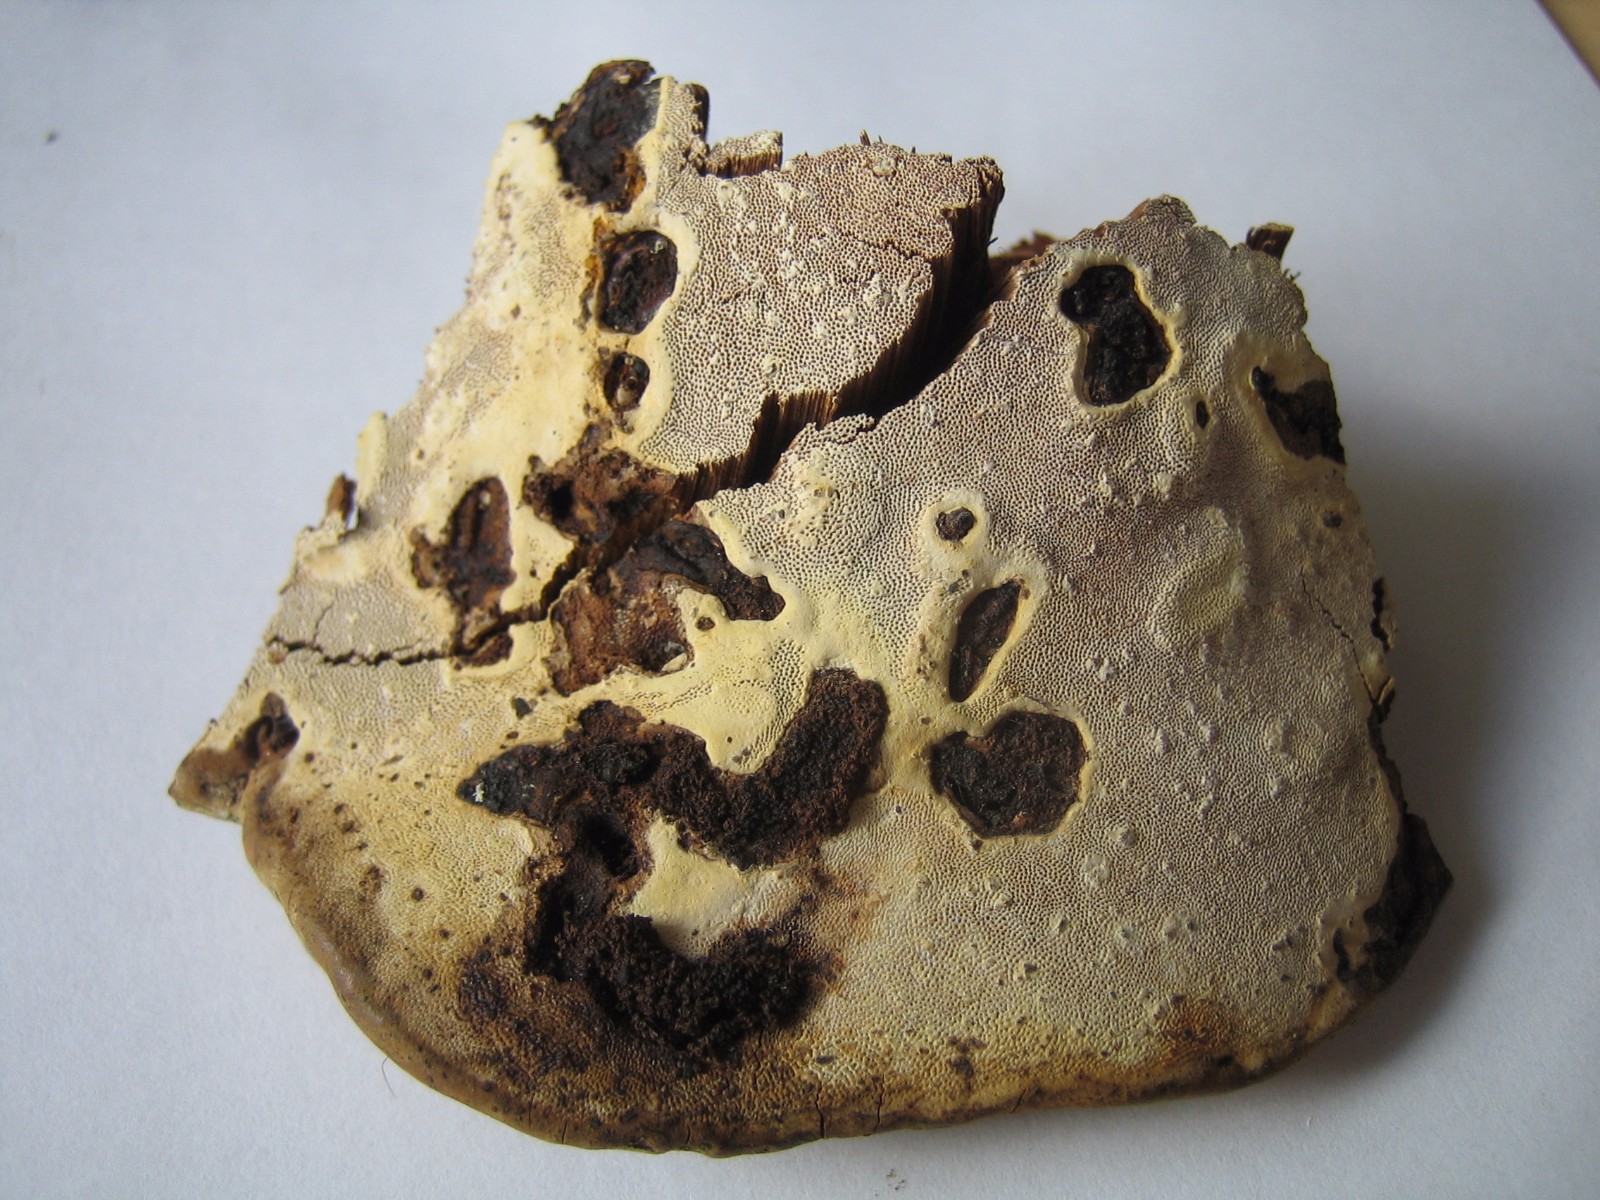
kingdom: Fungi
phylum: Basidiomycota
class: Agaricomycetes
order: Polyporales
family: Polyporaceae
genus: Ganoderma
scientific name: Ganoderma applanatum
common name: flad lakporesvamp
